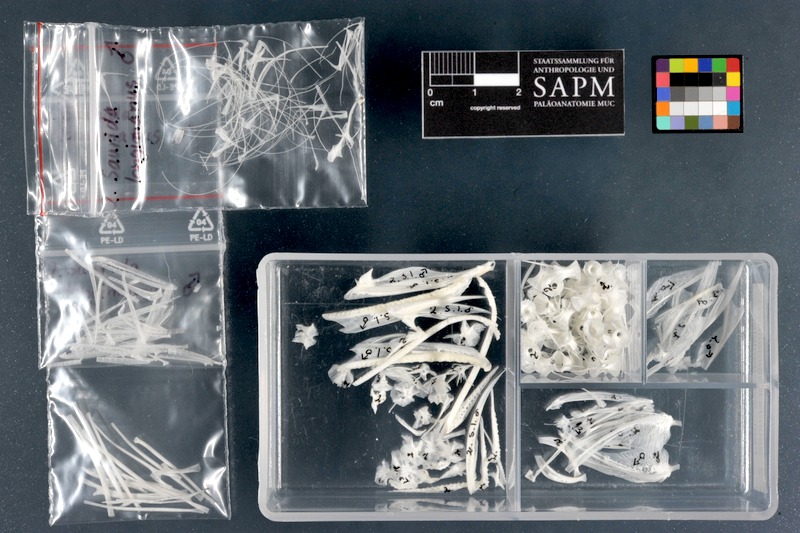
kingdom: Animalia
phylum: Chordata
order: Aulopiformes
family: Synodontidae
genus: Saurida
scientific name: Saurida longimanus
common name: Longfin lizardfish
